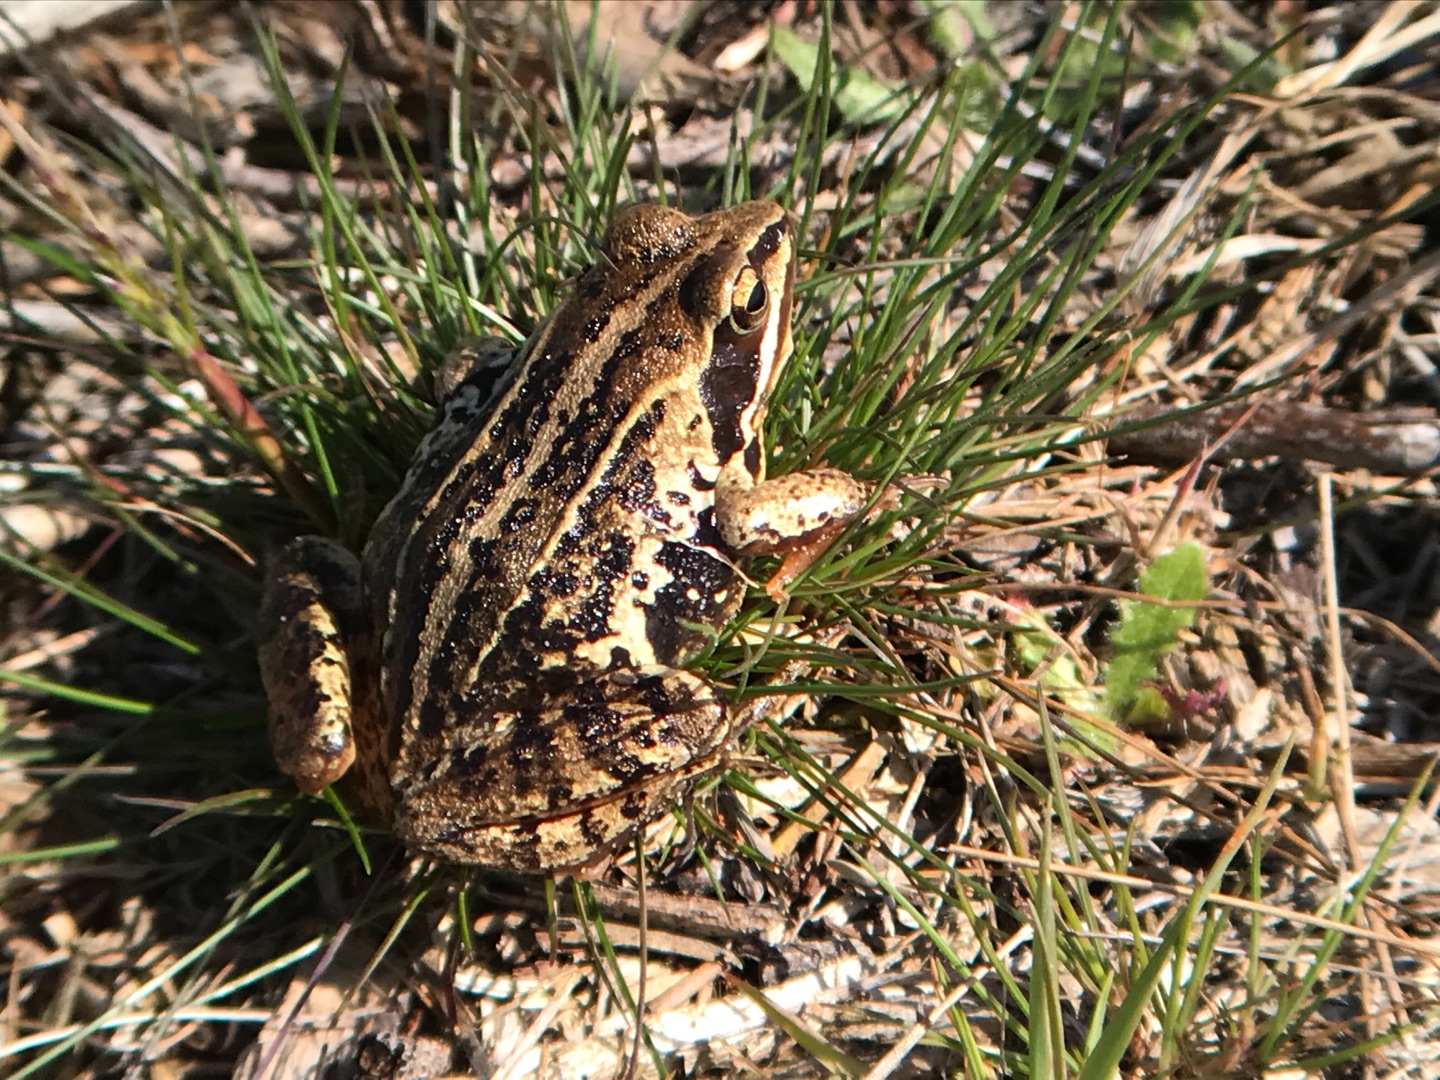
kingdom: Animalia
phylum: Chordata
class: Amphibia
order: Anura
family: Ranidae
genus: Rana
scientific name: Rana arvalis
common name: Spidssnudet frø
